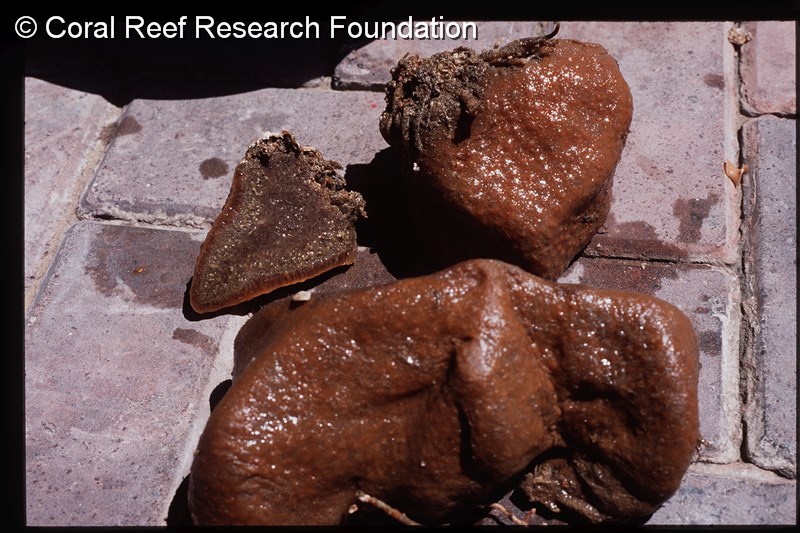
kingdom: Animalia
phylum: Chordata
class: Ascidiacea
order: Aplousobranchia
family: Polycitoridae
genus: Eudistoma
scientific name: Eudistoma
